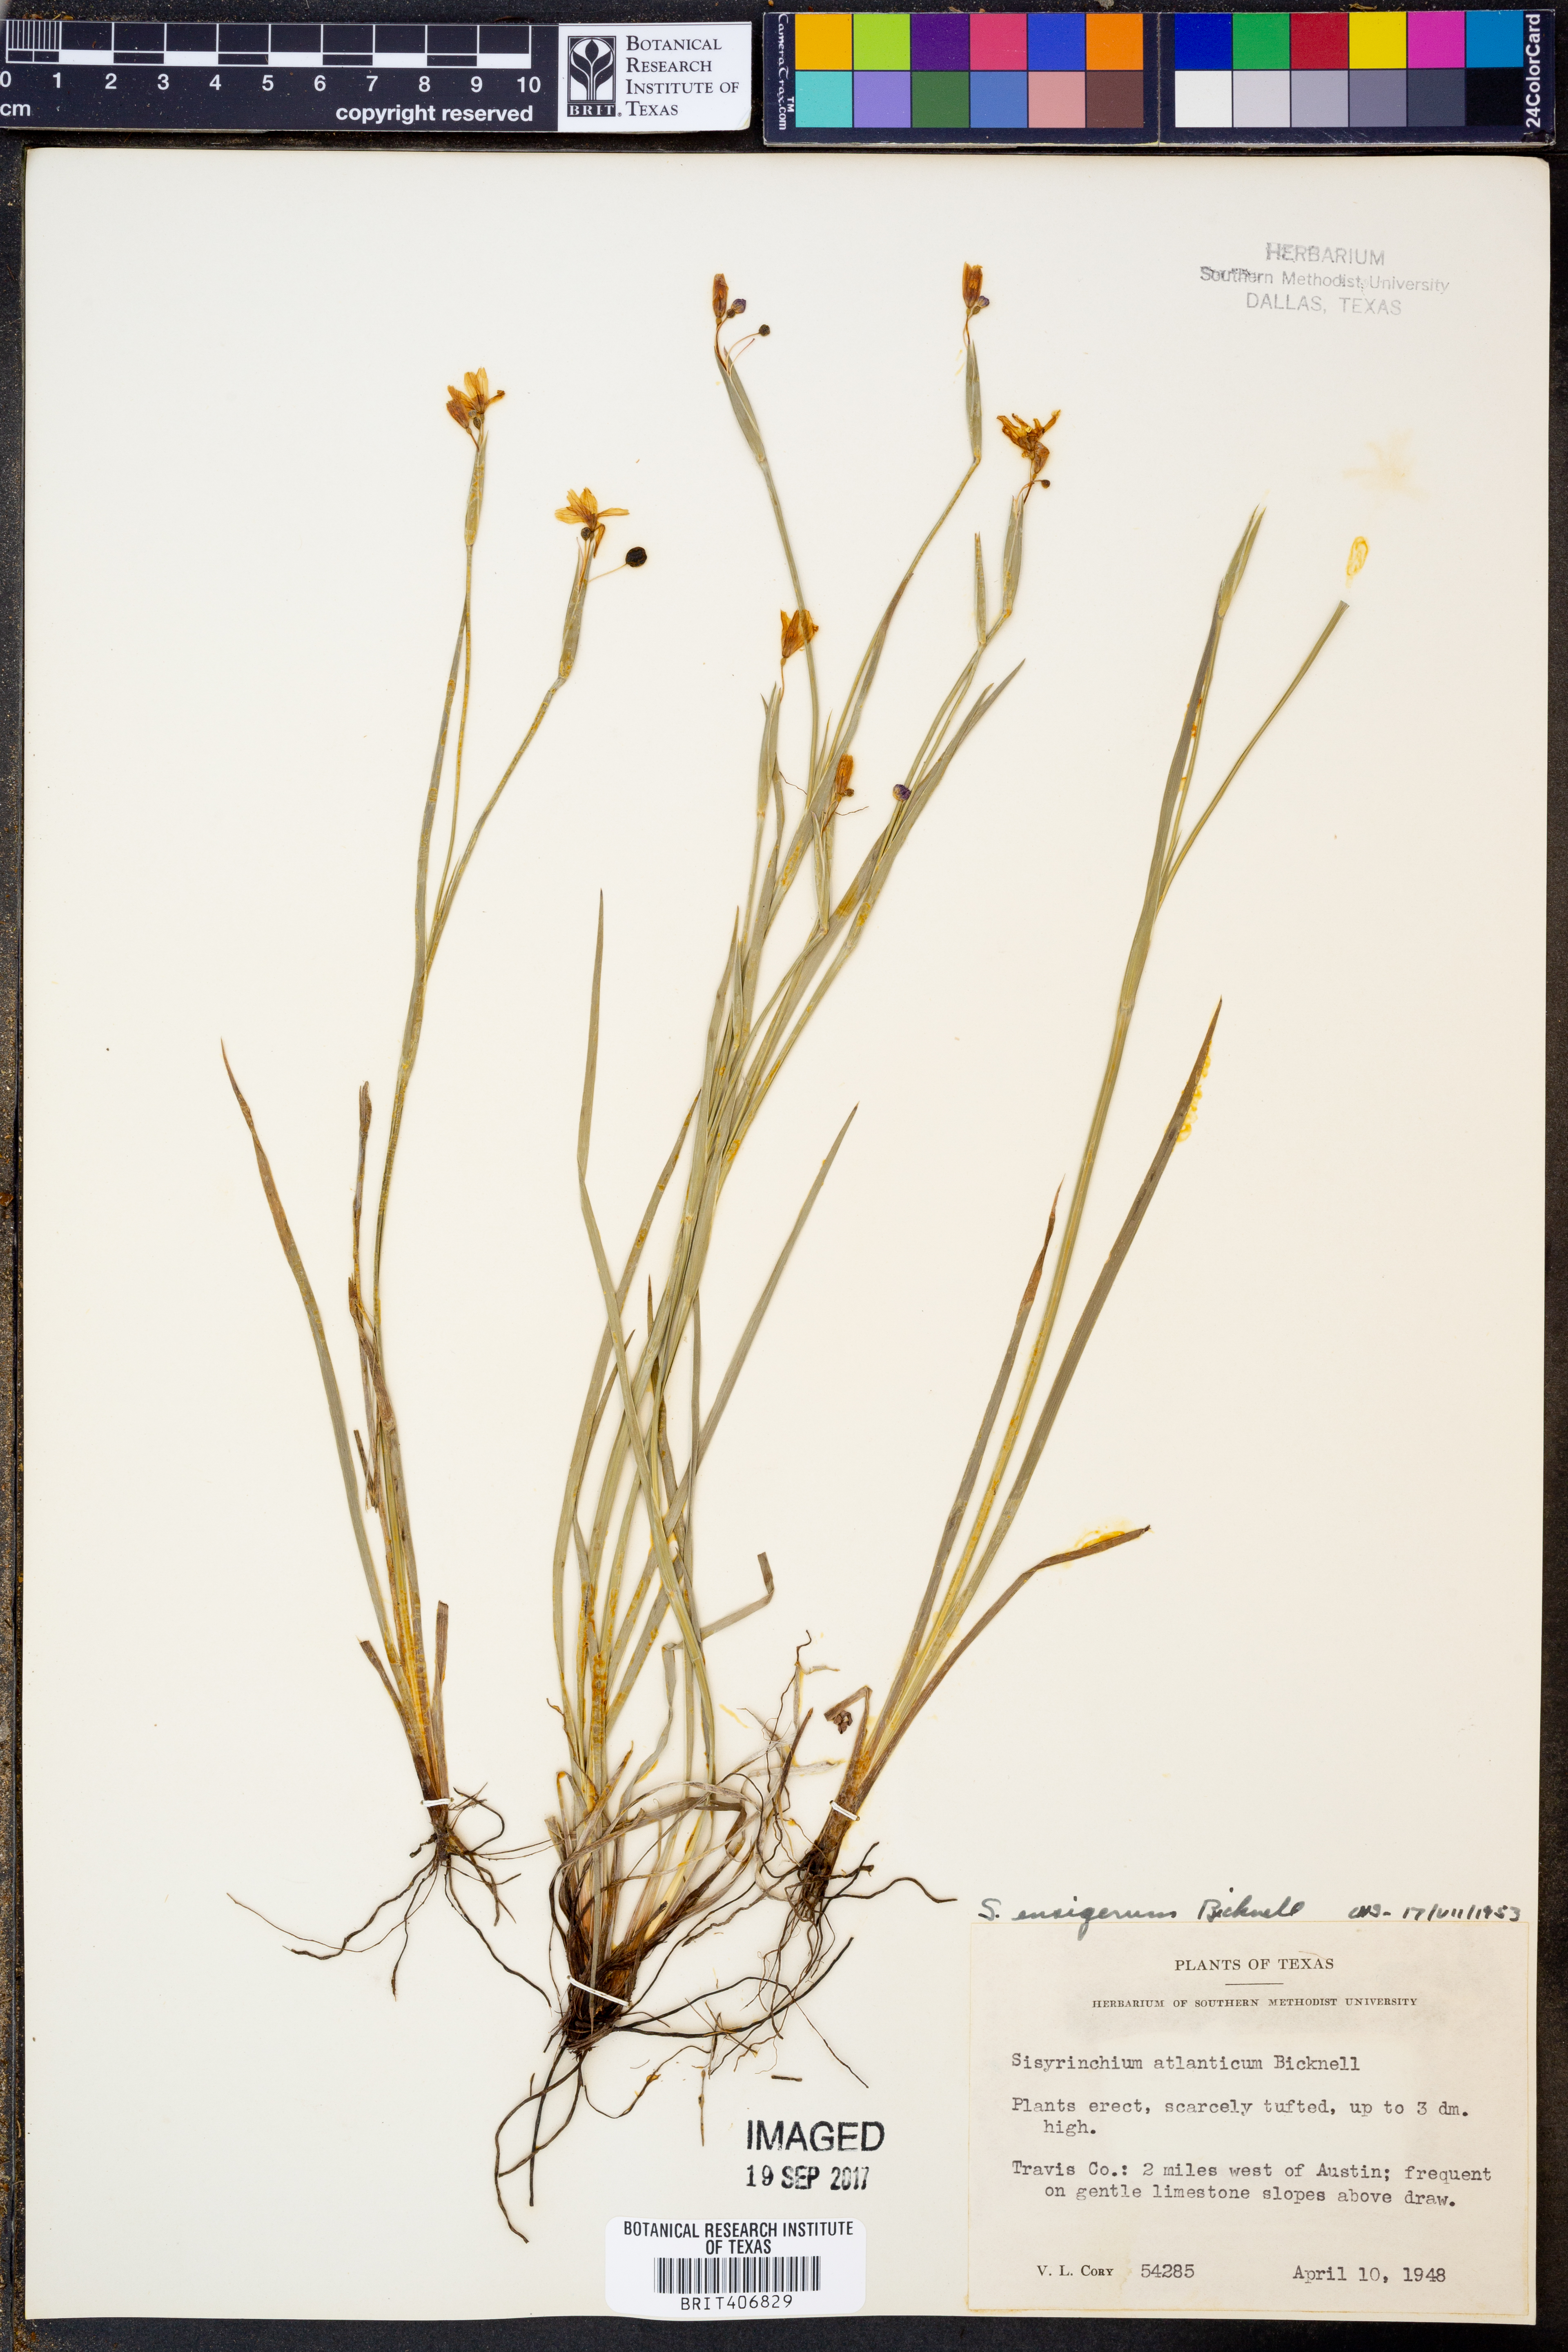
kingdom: Plantae
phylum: Tracheophyta
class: Liliopsida
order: Asparagales
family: Iridaceae
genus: Sisyrinchium
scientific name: Sisyrinchium ensigerum
